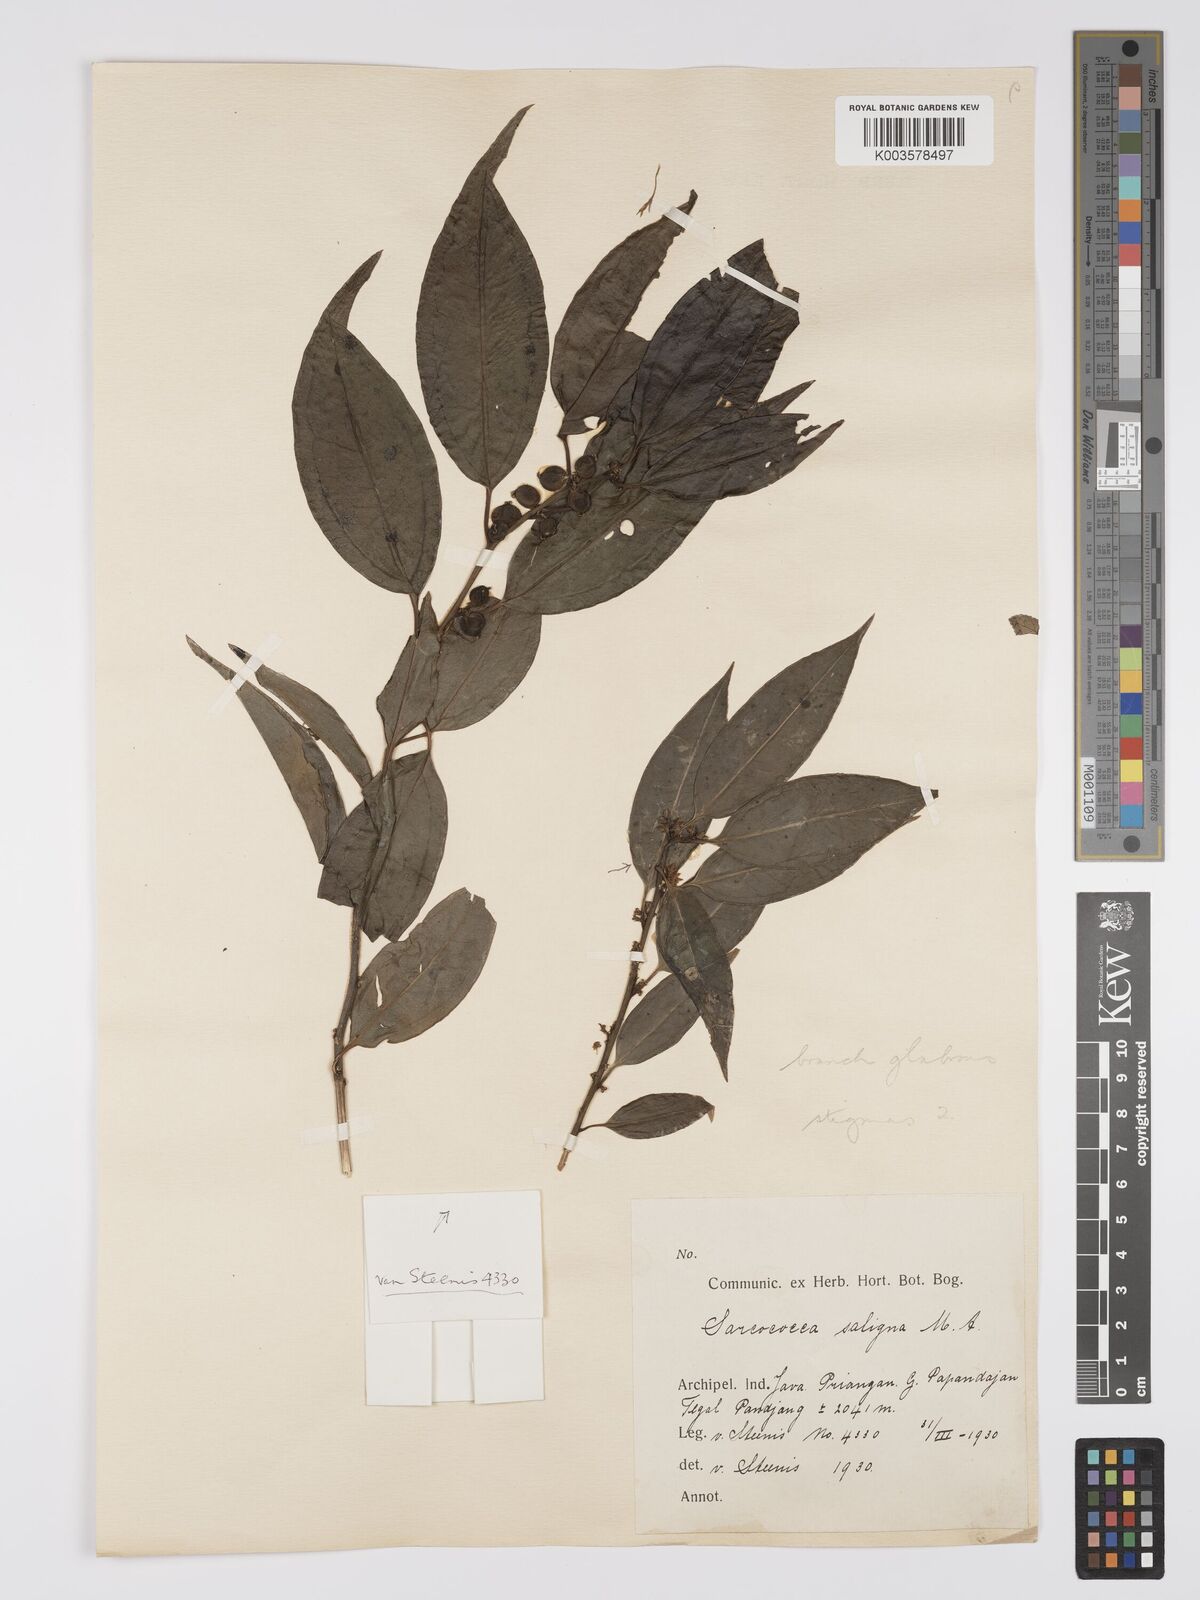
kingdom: Plantae
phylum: Tracheophyta
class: Magnoliopsida
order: Buxales
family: Buxaceae
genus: Sarcococca
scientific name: Sarcococca saligna
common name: Willow-leaf sweet-box
